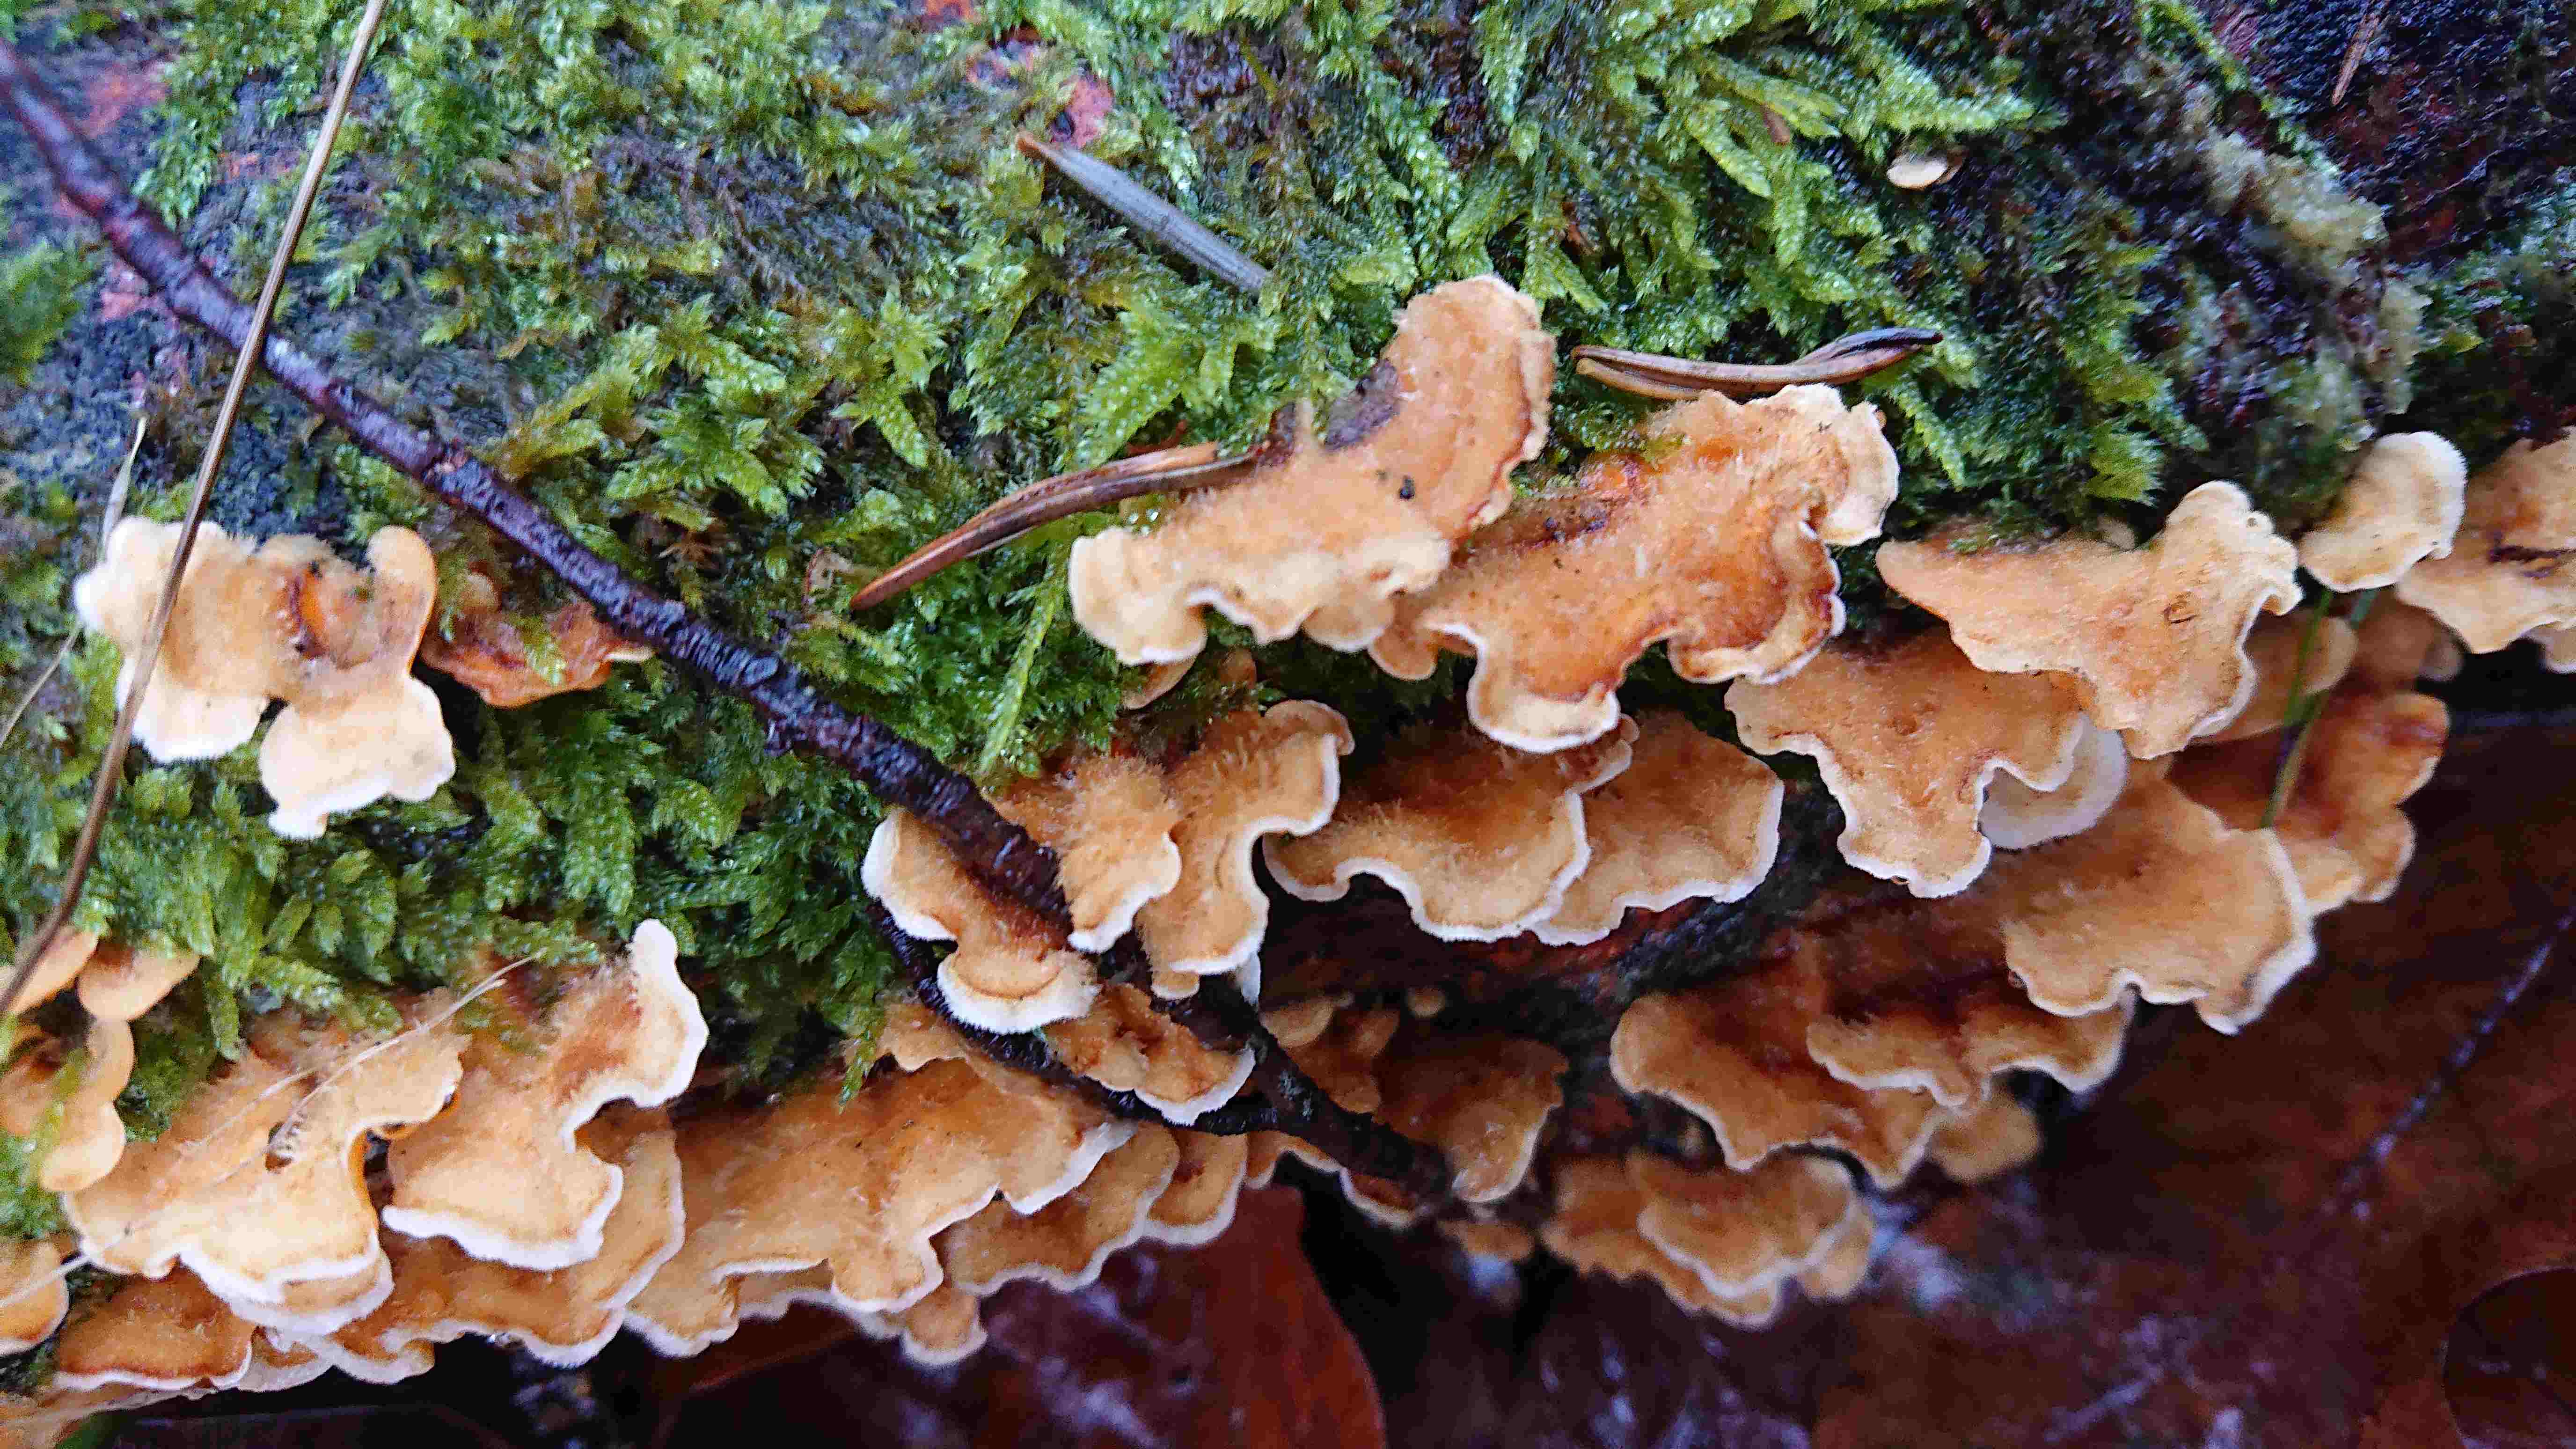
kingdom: Fungi
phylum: Basidiomycota
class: Agaricomycetes
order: Russulales
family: Stereaceae
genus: Stereum
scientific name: Stereum hirsutum
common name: håret lædersvamp
